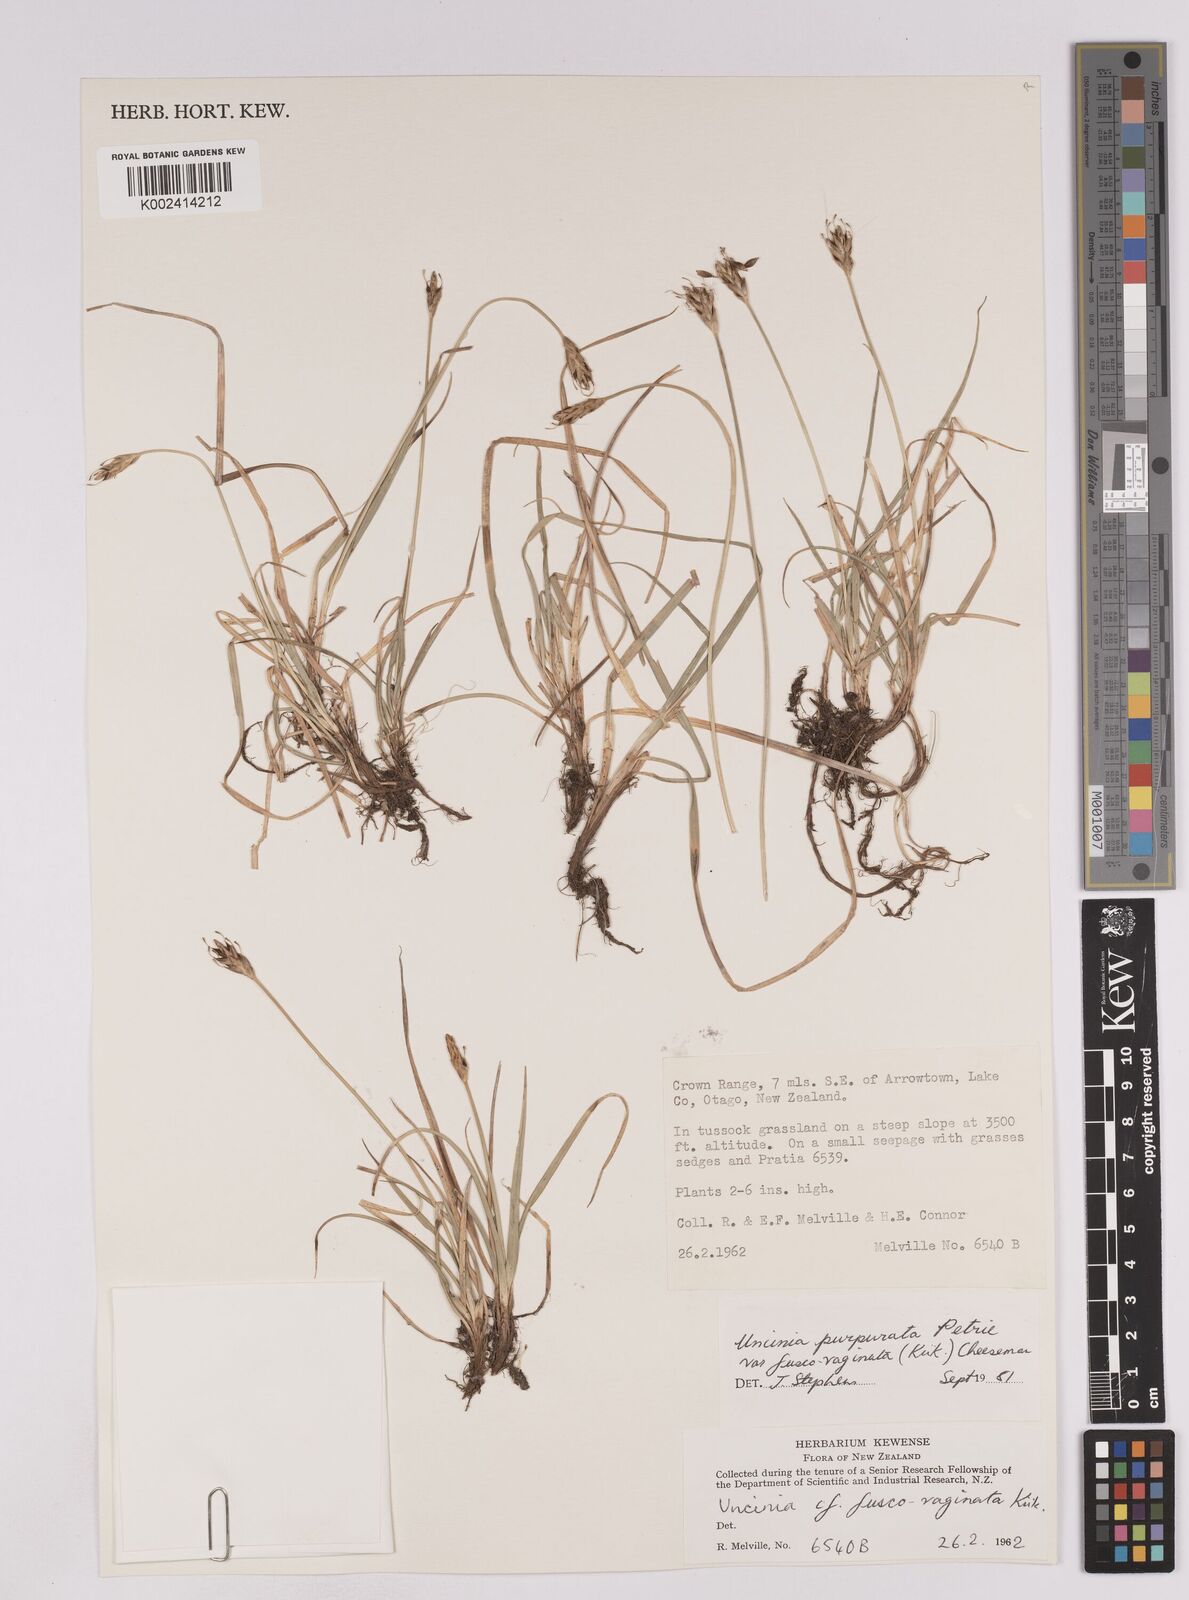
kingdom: Plantae
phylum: Tracheophyta
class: Liliopsida
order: Poales
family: Cyperaceae
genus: Carex
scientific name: Carex penalpina
